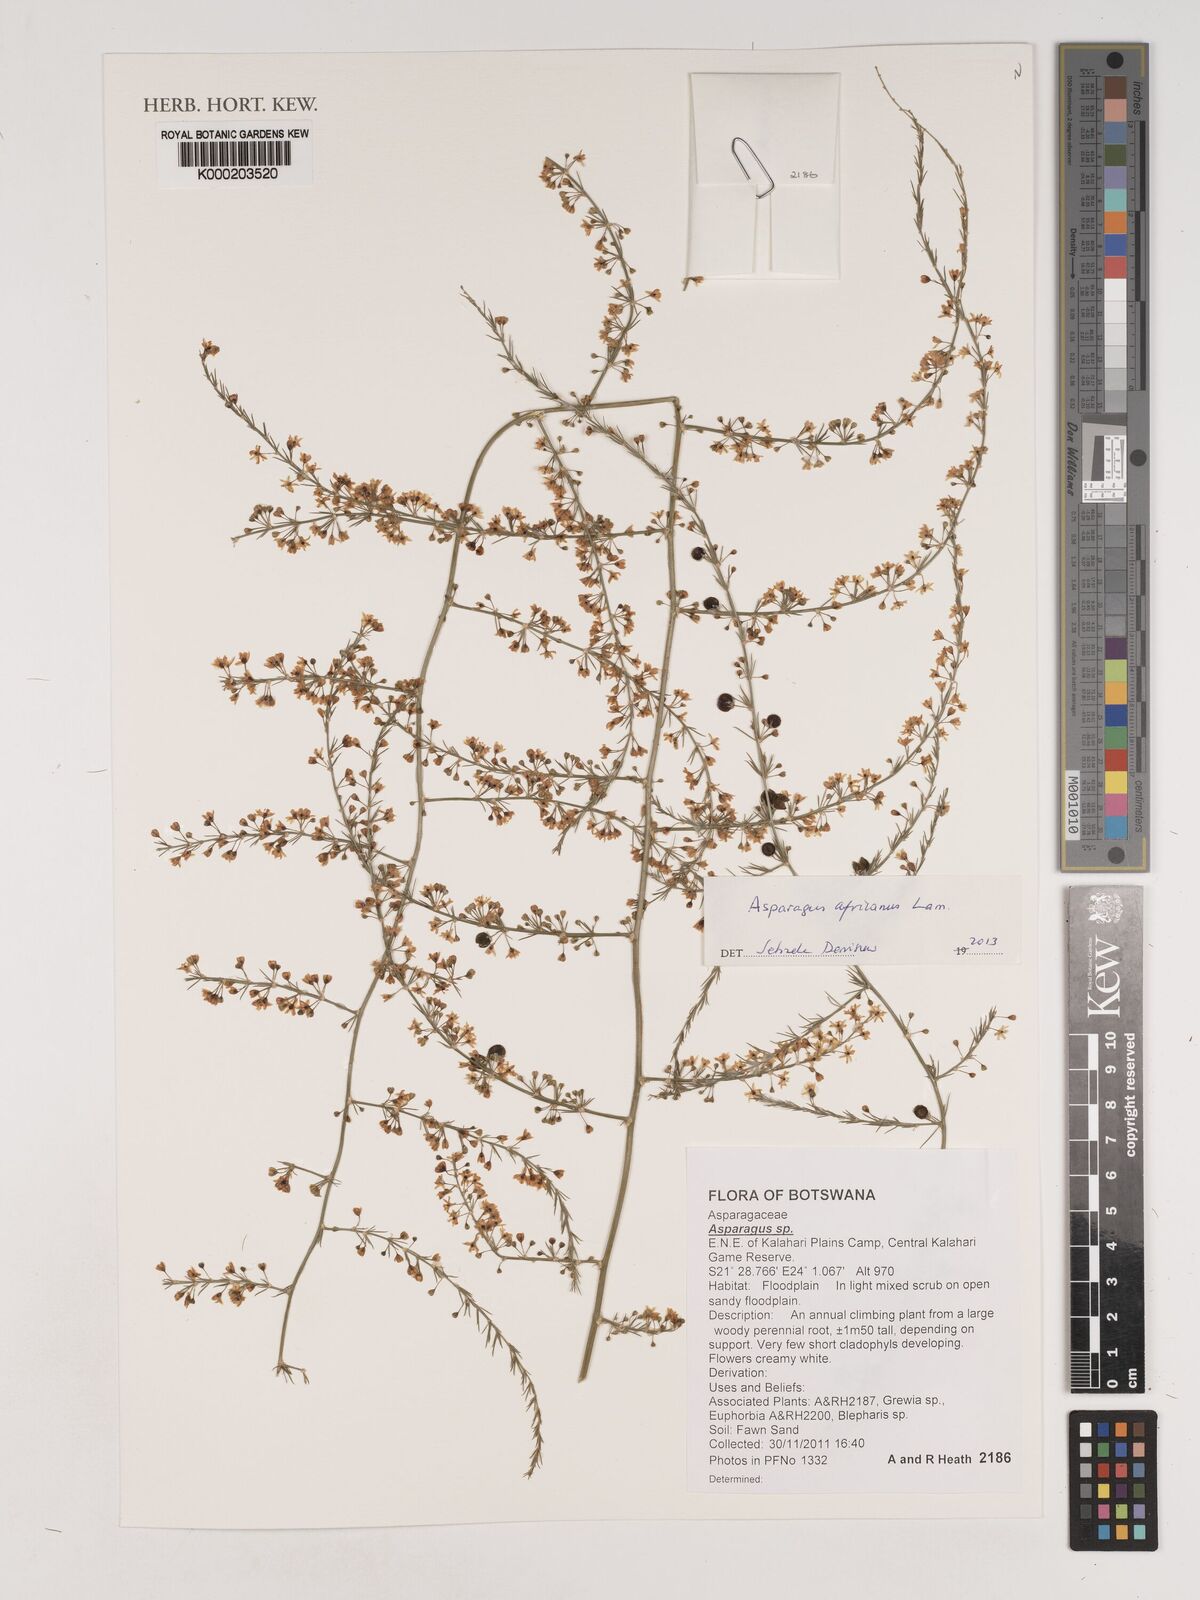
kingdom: Plantae
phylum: Tracheophyta
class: Liliopsida
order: Asparagales
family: Asparagaceae
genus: Asparagus
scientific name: Asparagus africanus
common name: Asparagus-fern
